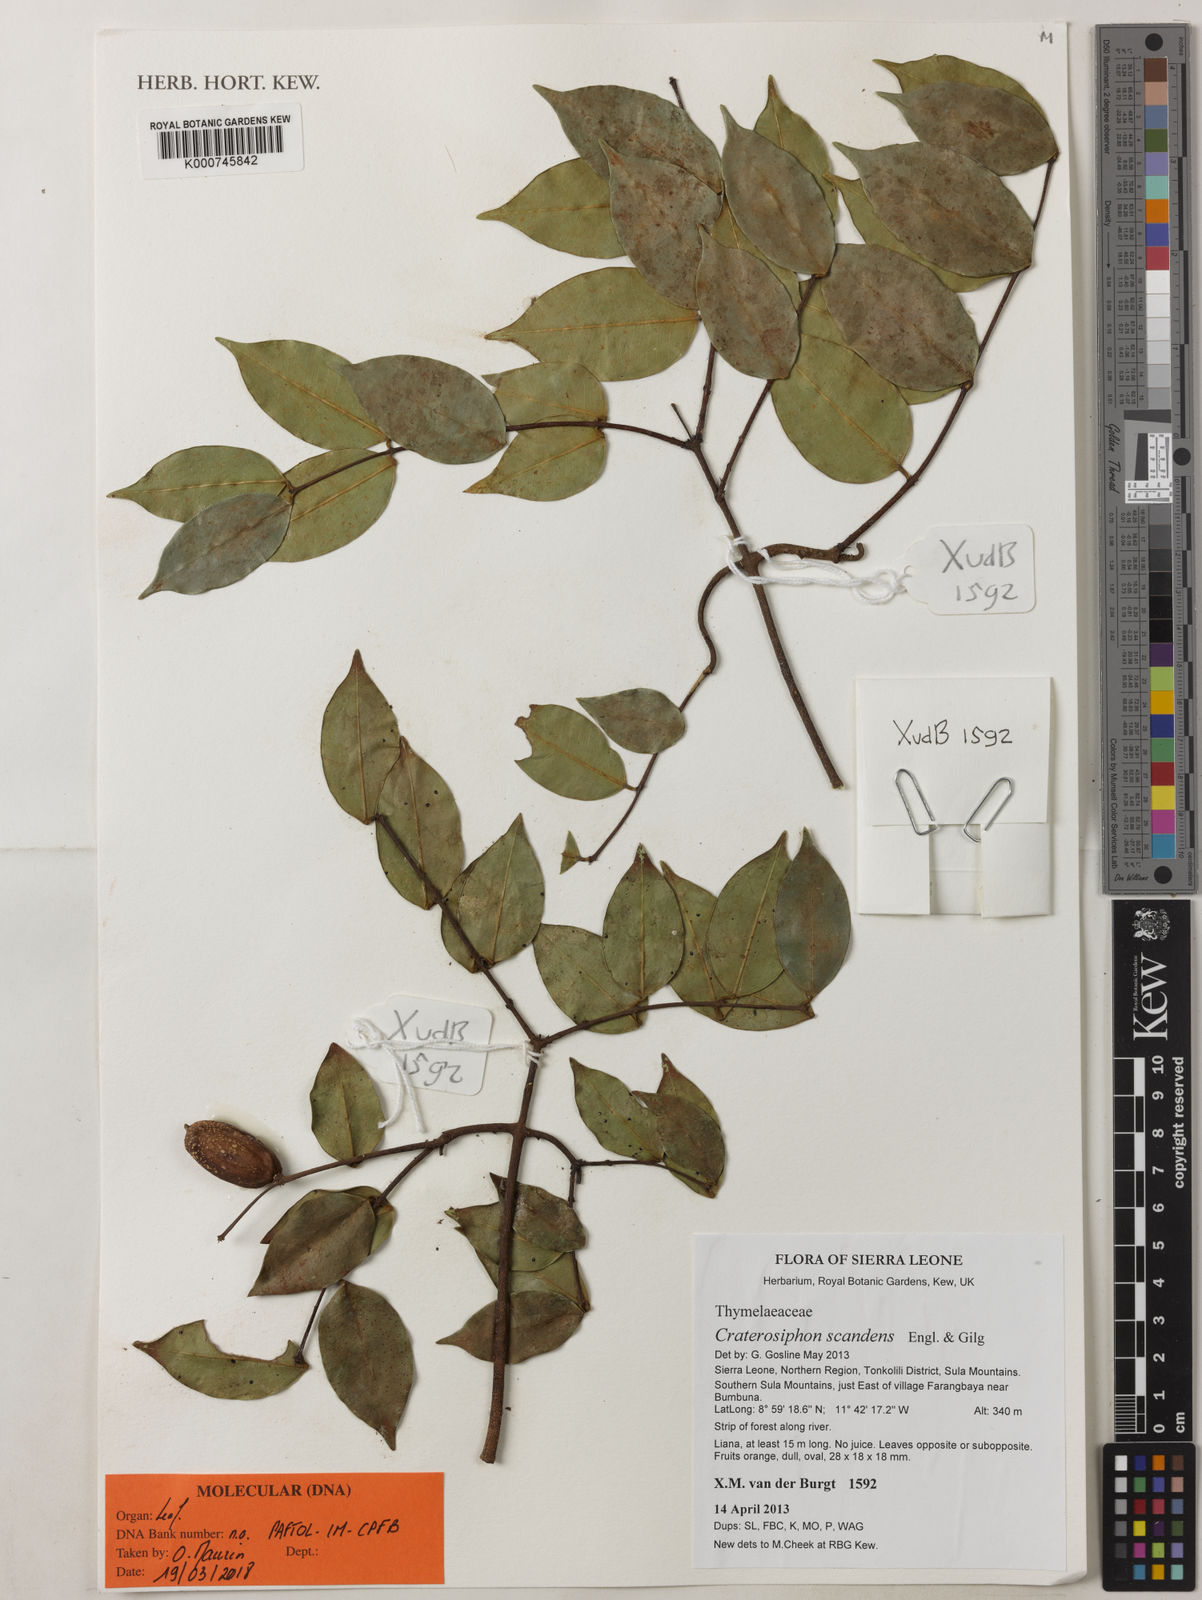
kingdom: Plantae
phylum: Tracheophyta
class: Magnoliopsida
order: Malvales
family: Thymelaeaceae
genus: Craterosiphon
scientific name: Craterosiphon scandens
